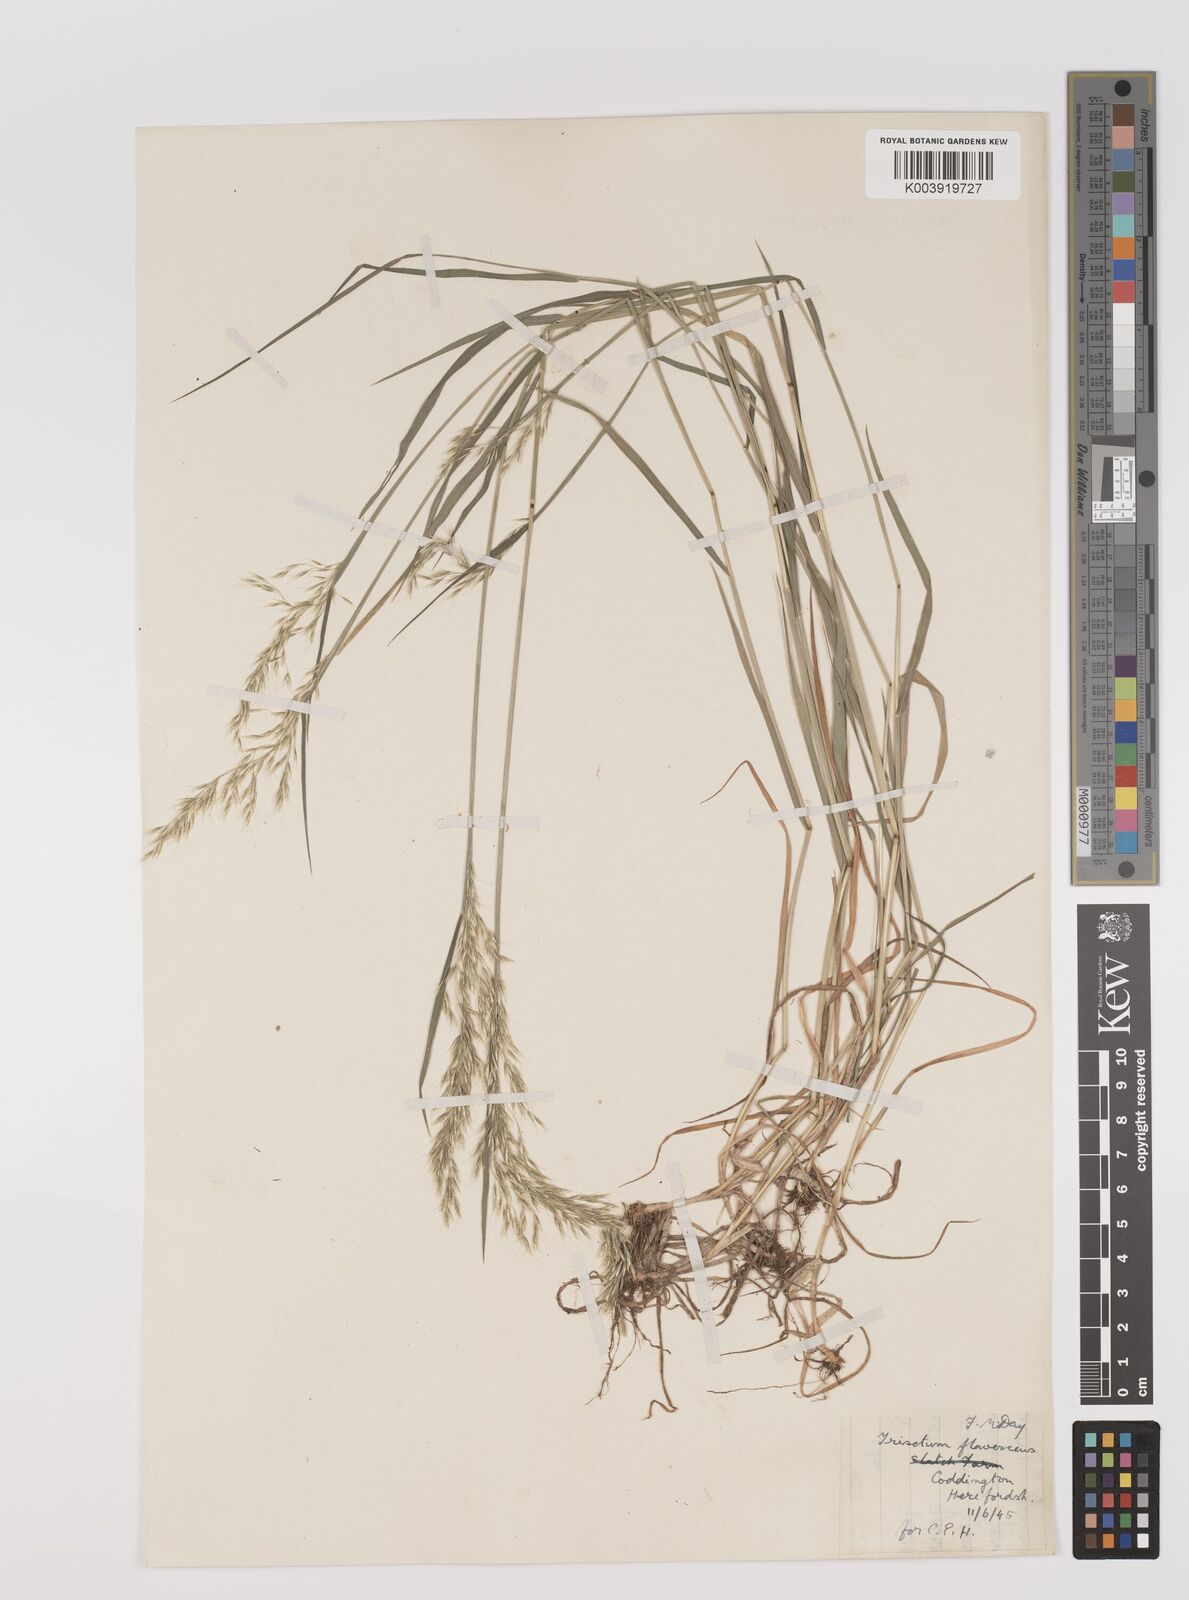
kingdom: Plantae
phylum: Tracheophyta
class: Liliopsida
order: Poales
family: Poaceae
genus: Trisetum
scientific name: Trisetum flavescens
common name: Yellow oat-grass
